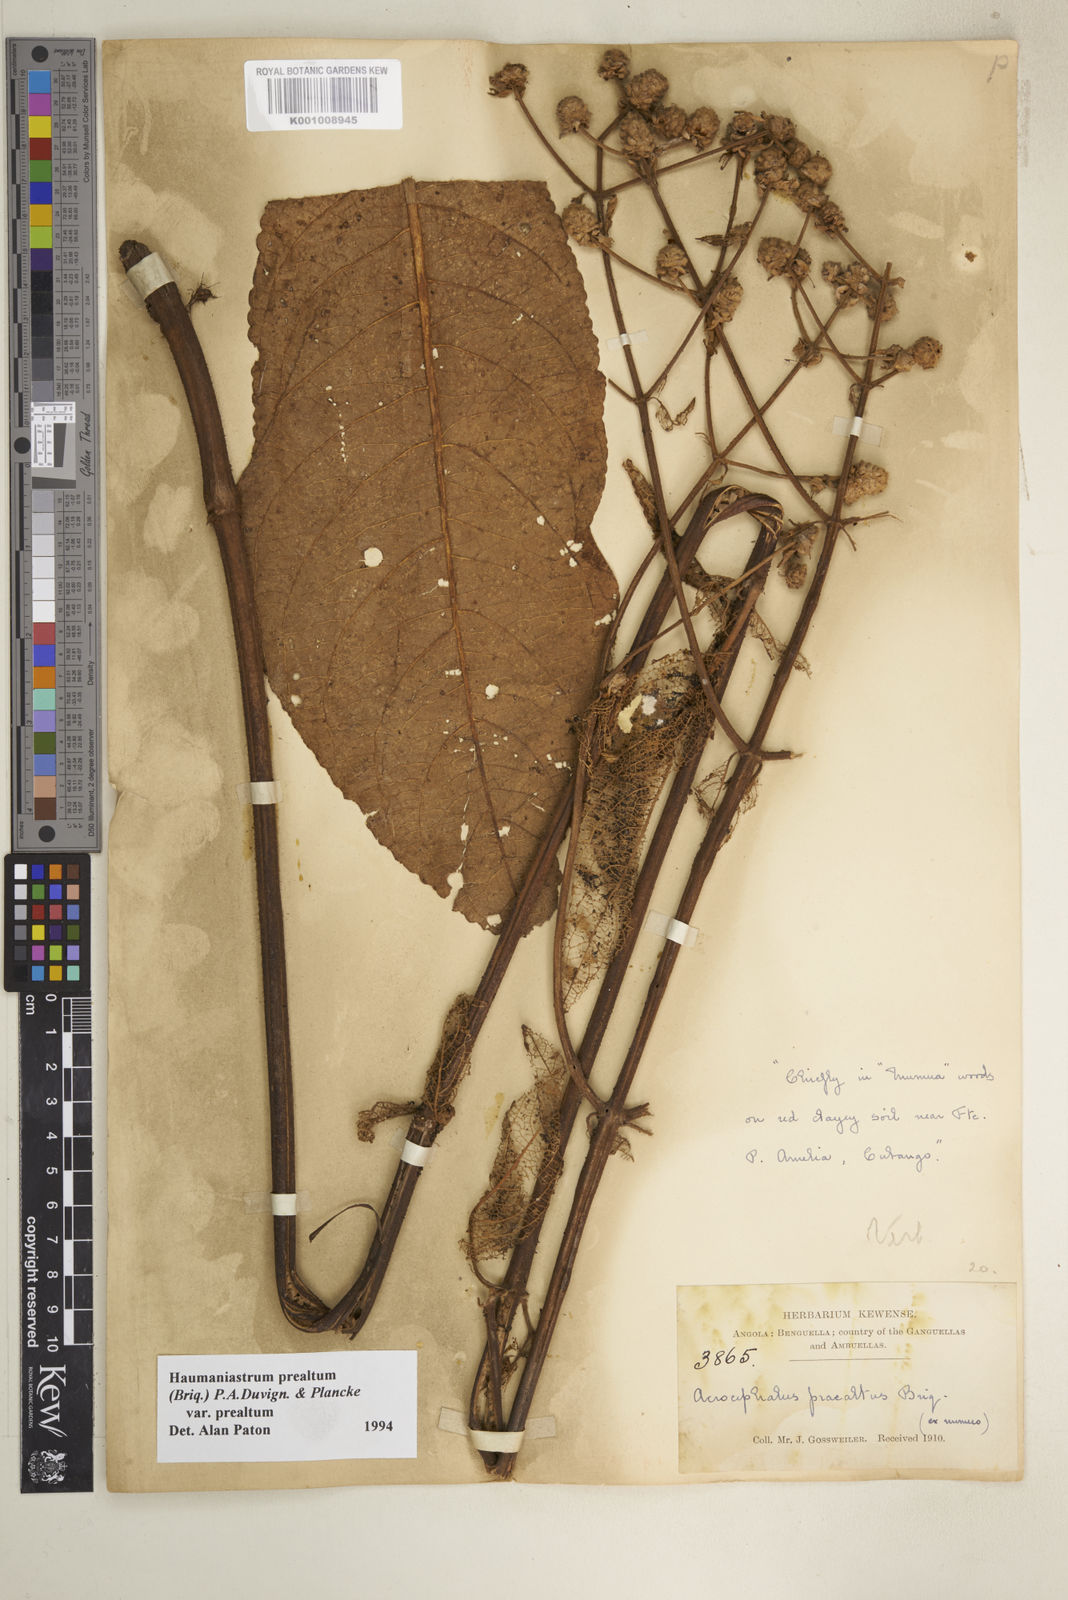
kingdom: Plantae
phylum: Tracheophyta
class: Magnoliopsida
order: Lamiales
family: Lamiaceae
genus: Haumaniastrum
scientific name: Haumaniastrum
